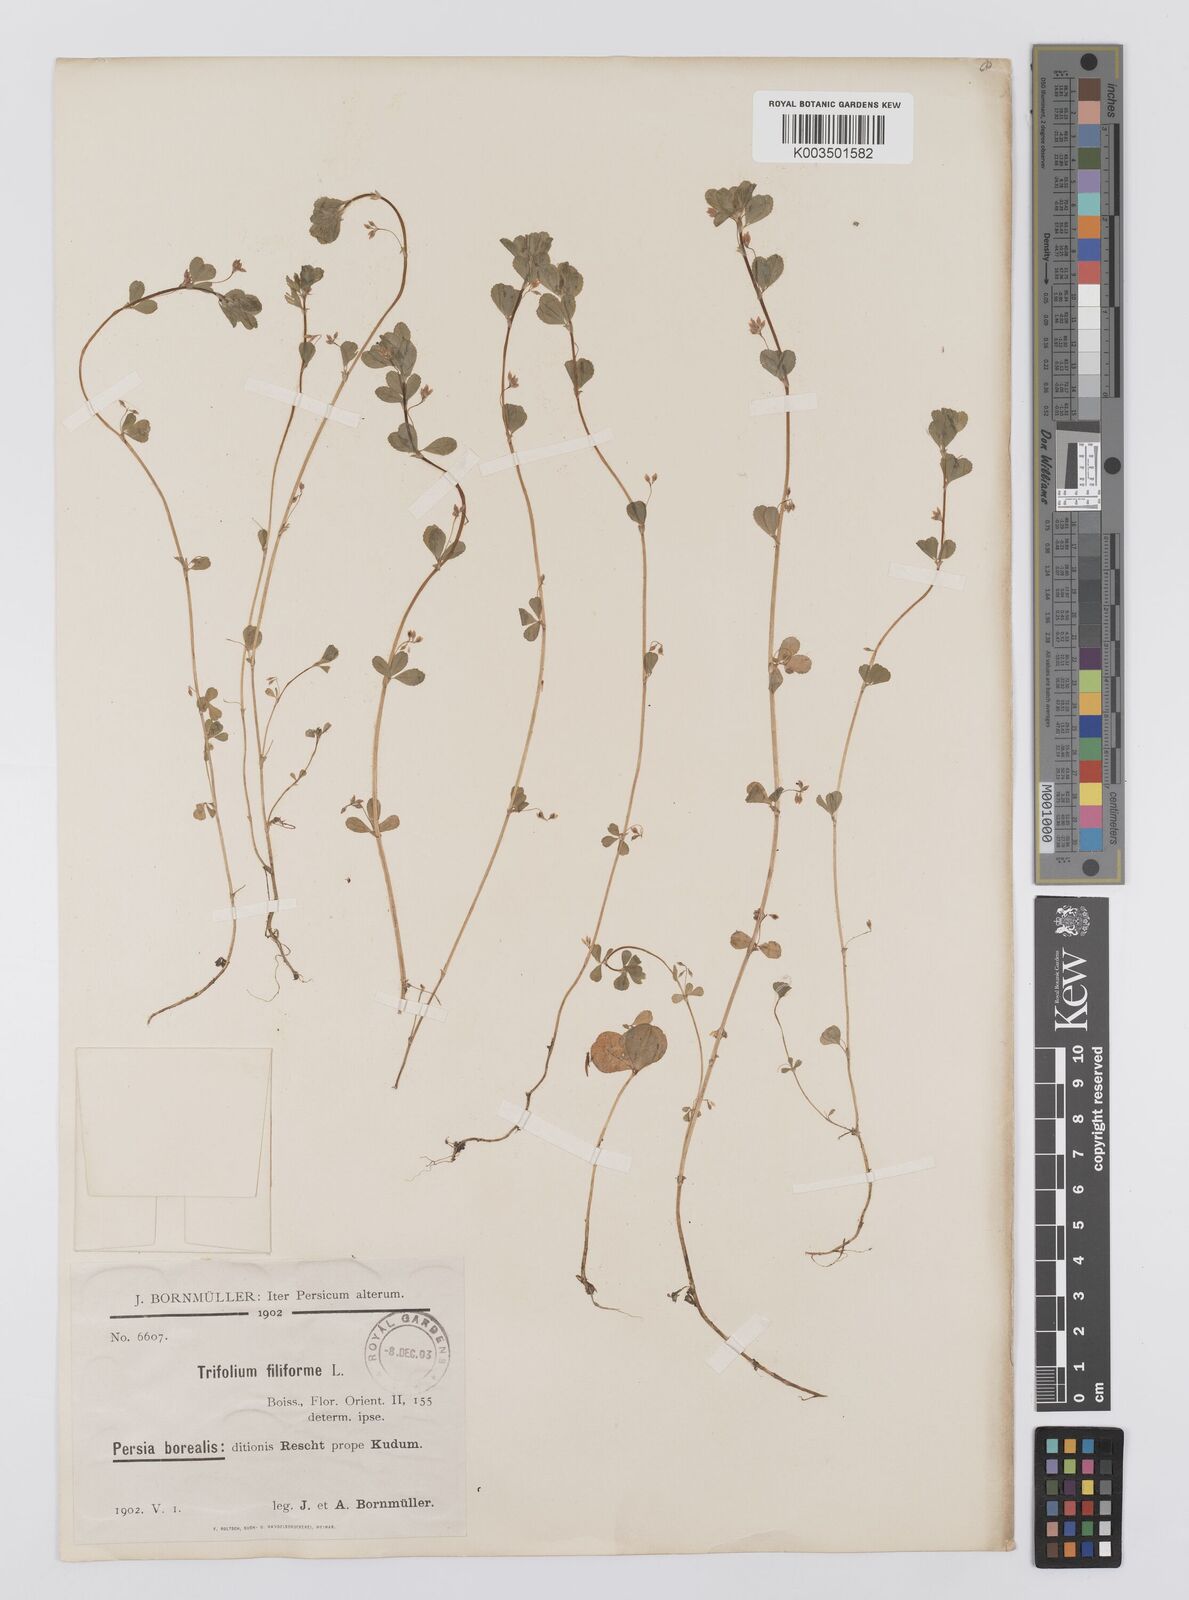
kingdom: Plantae
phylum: Tracheophyta
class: Magnoliopsida
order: Fabales
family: Fabaceae
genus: Trifolium
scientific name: Trifolium micranthum
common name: Slender trefoil
